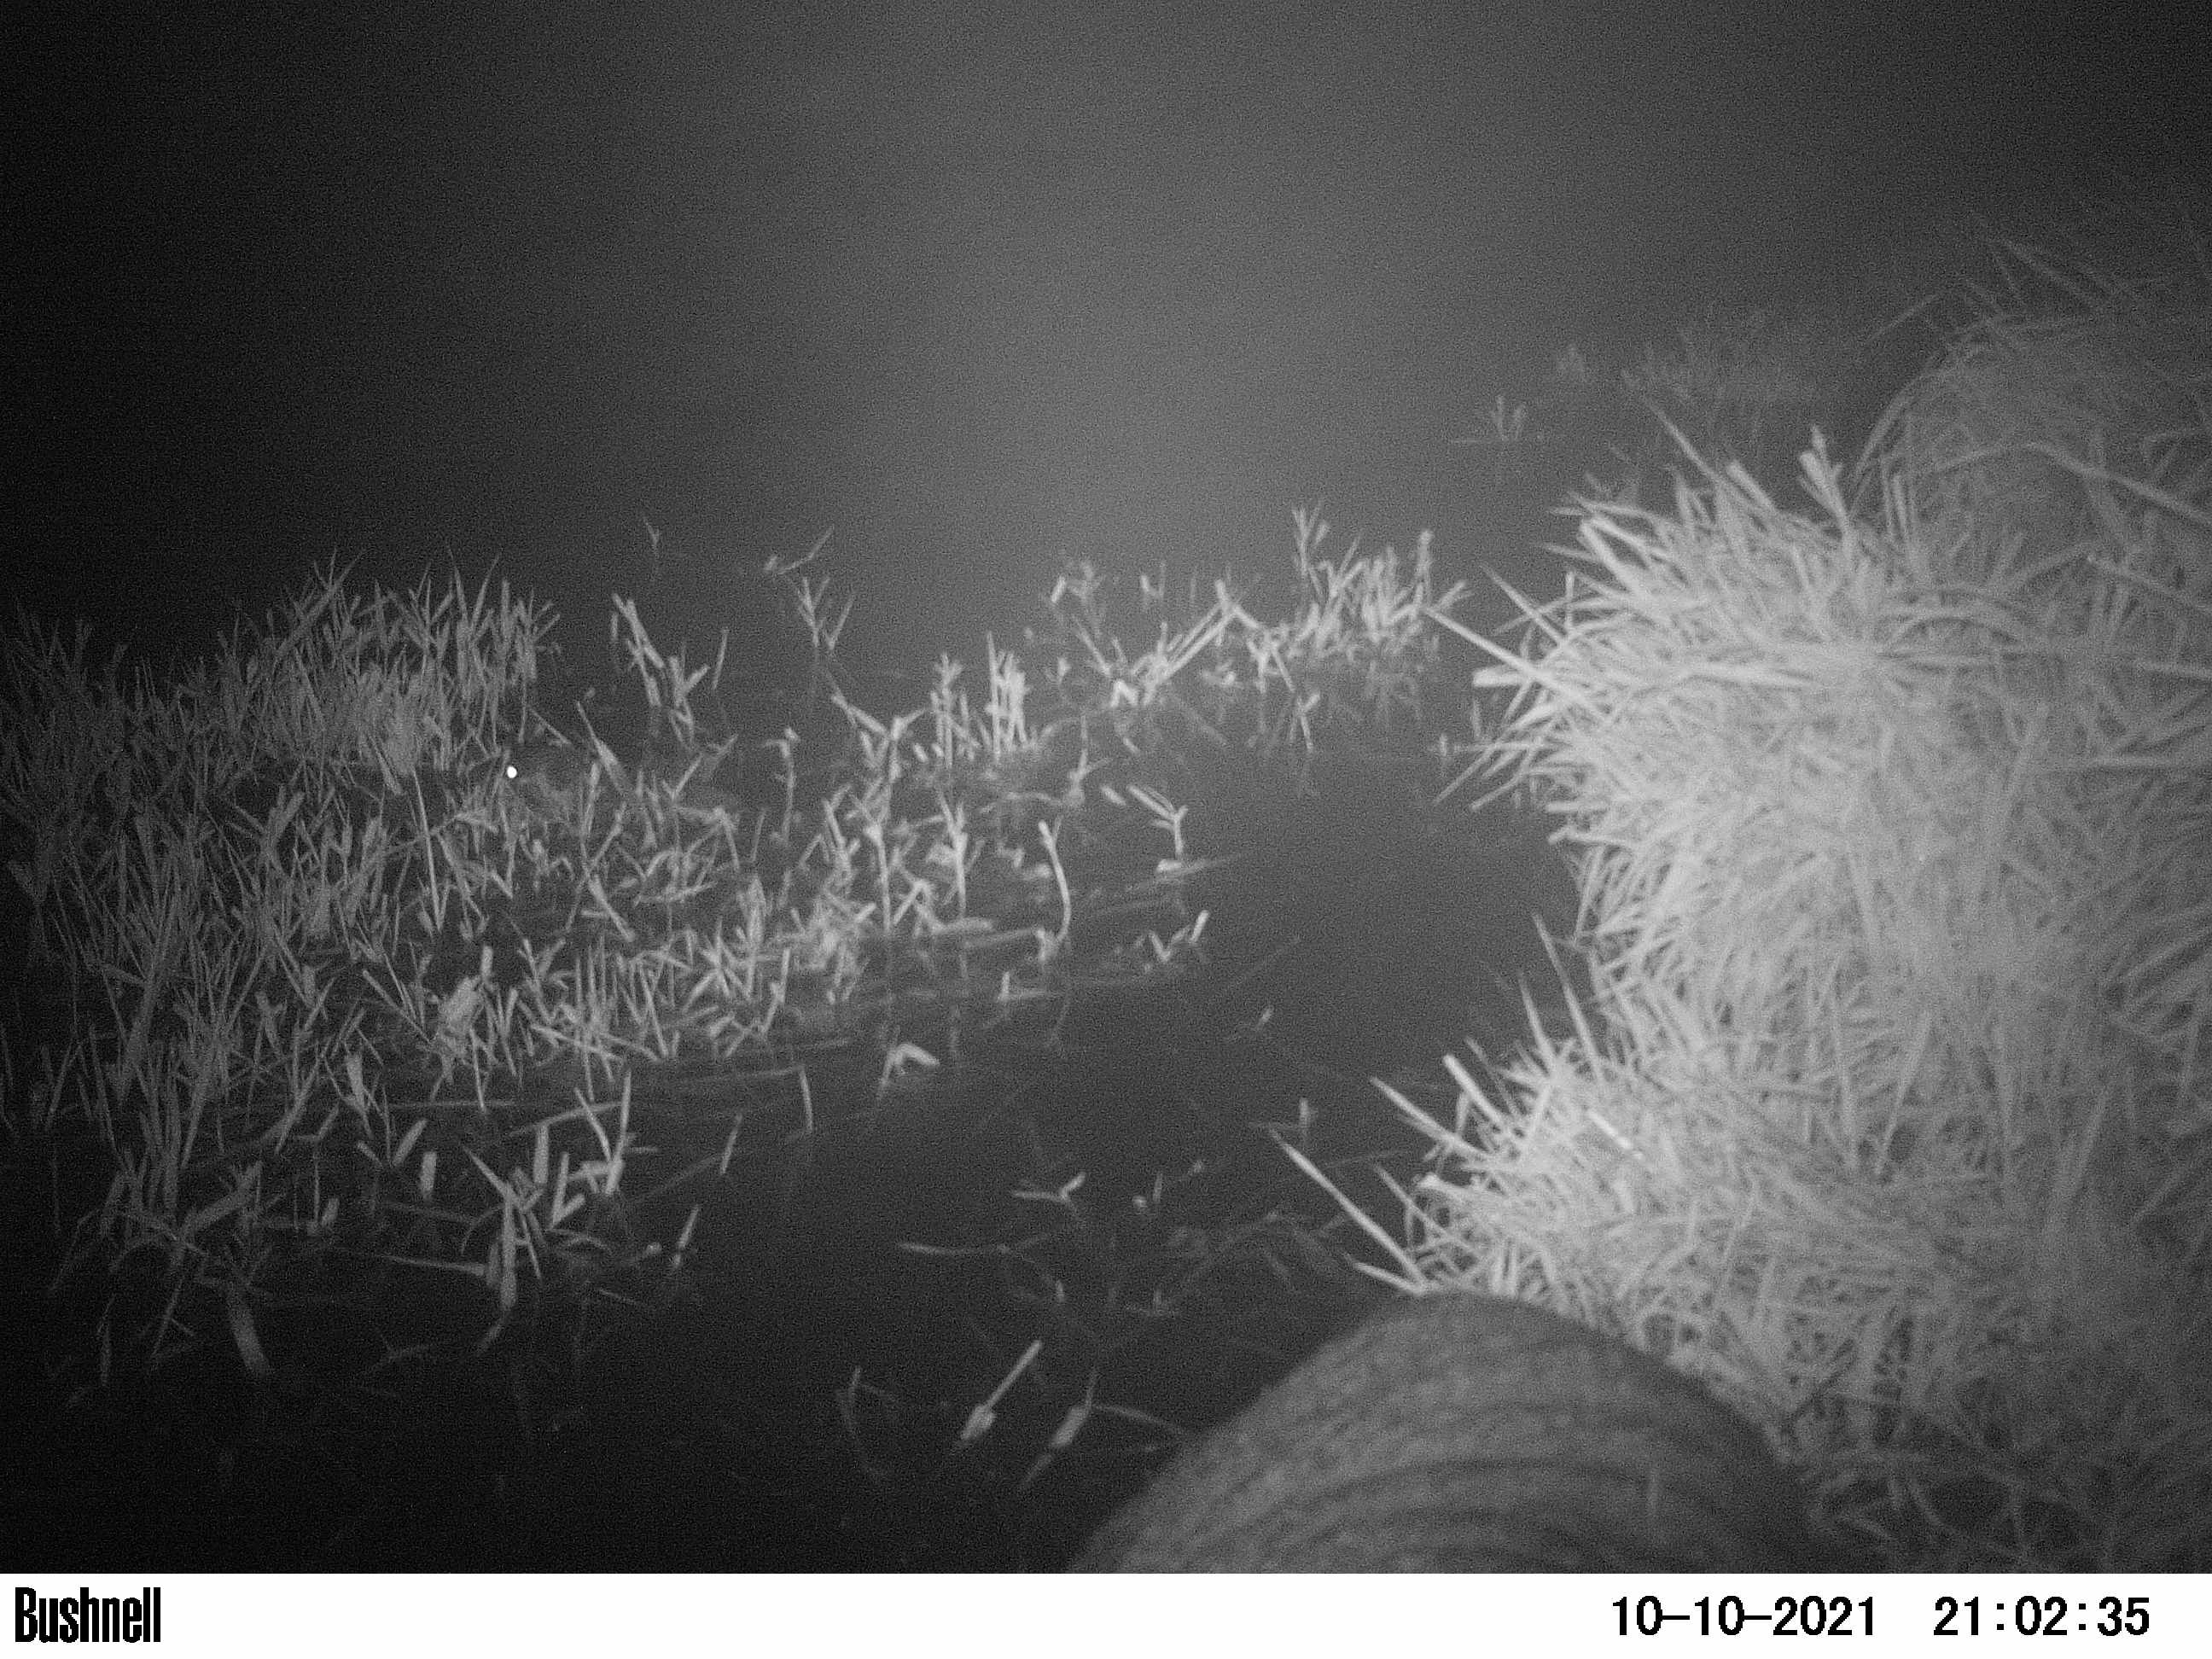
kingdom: Animalia
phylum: Chordata
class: Mammalia
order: Rodentia
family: Castoridae
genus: Castor
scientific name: Castor fiber
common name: Eurasian beaver
